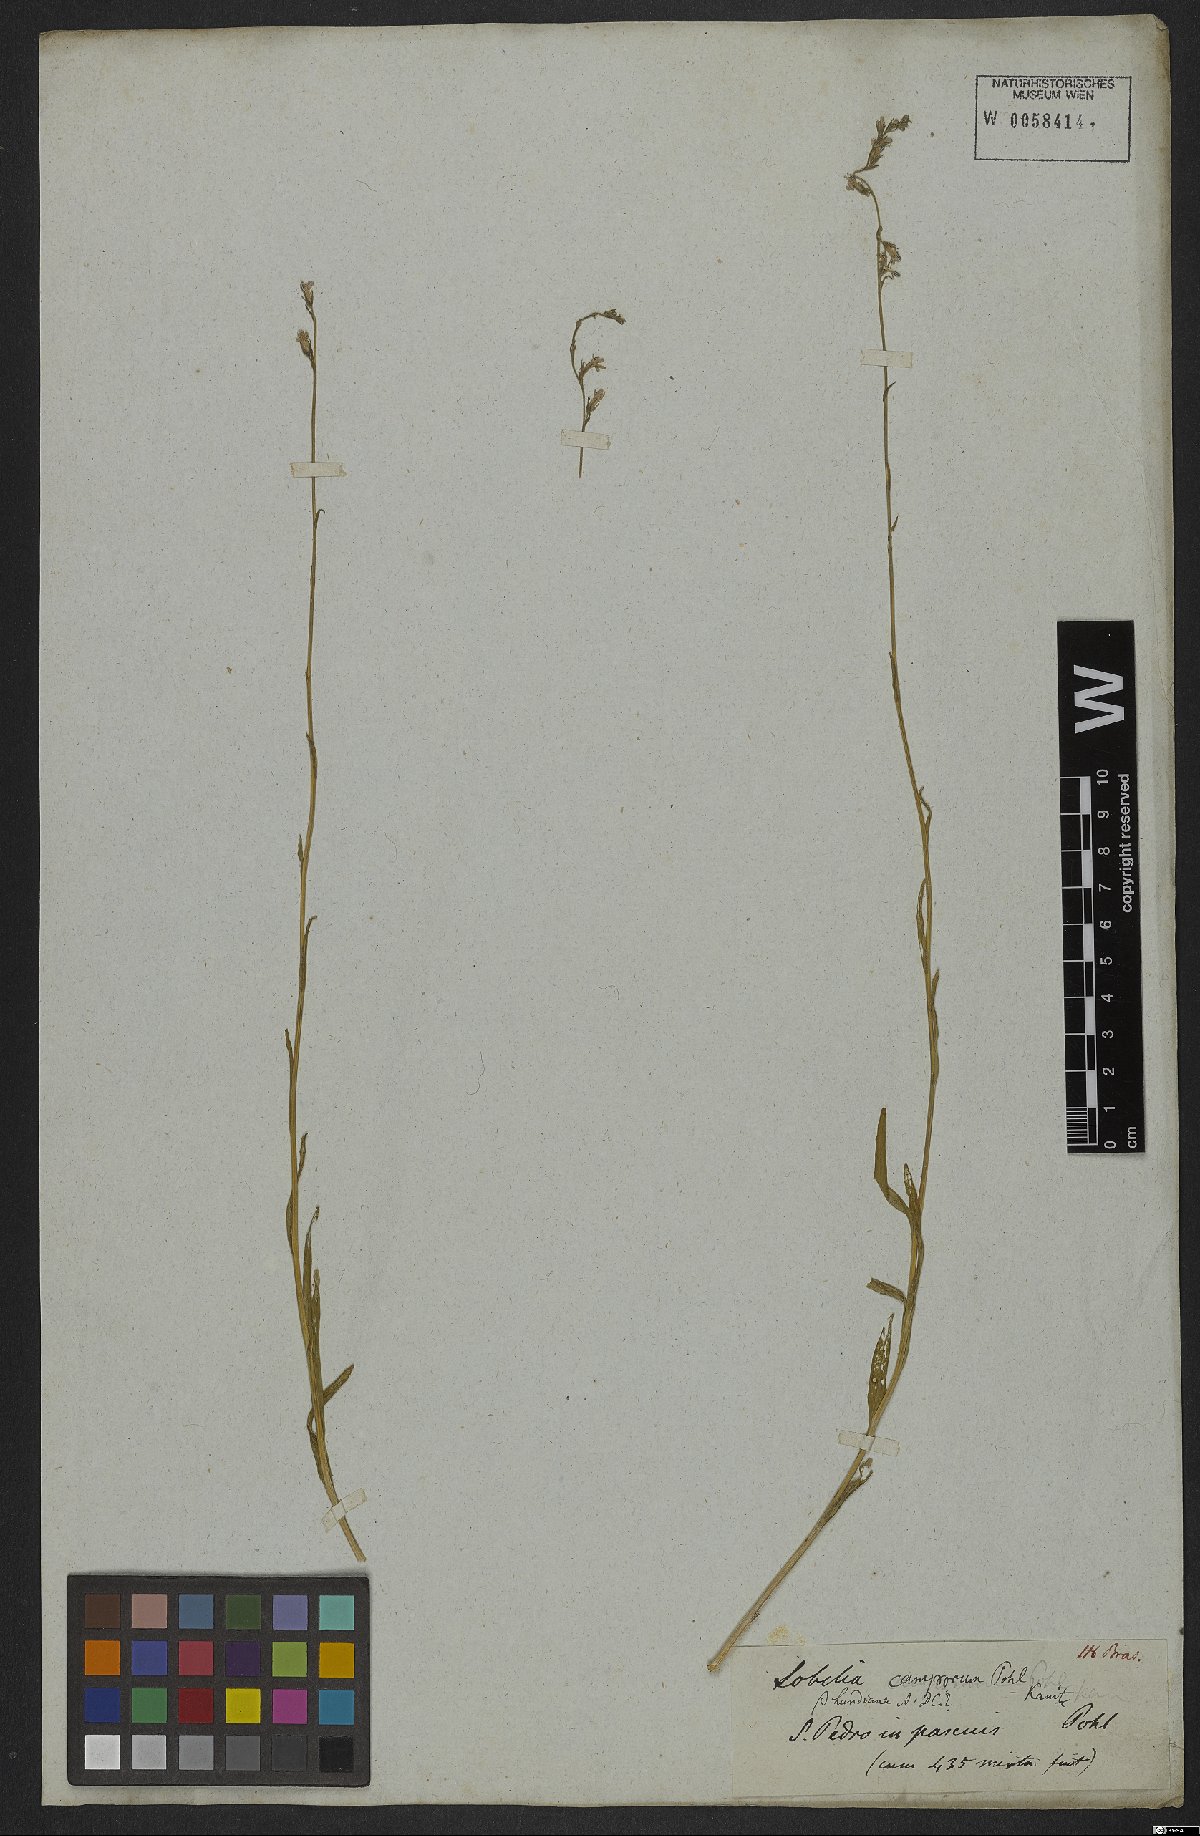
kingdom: Plantae
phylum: Tracheophyta
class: Magnoliopsida
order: Asterales
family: Campanulaceae
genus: Lobelia
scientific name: Lobelia camporum
